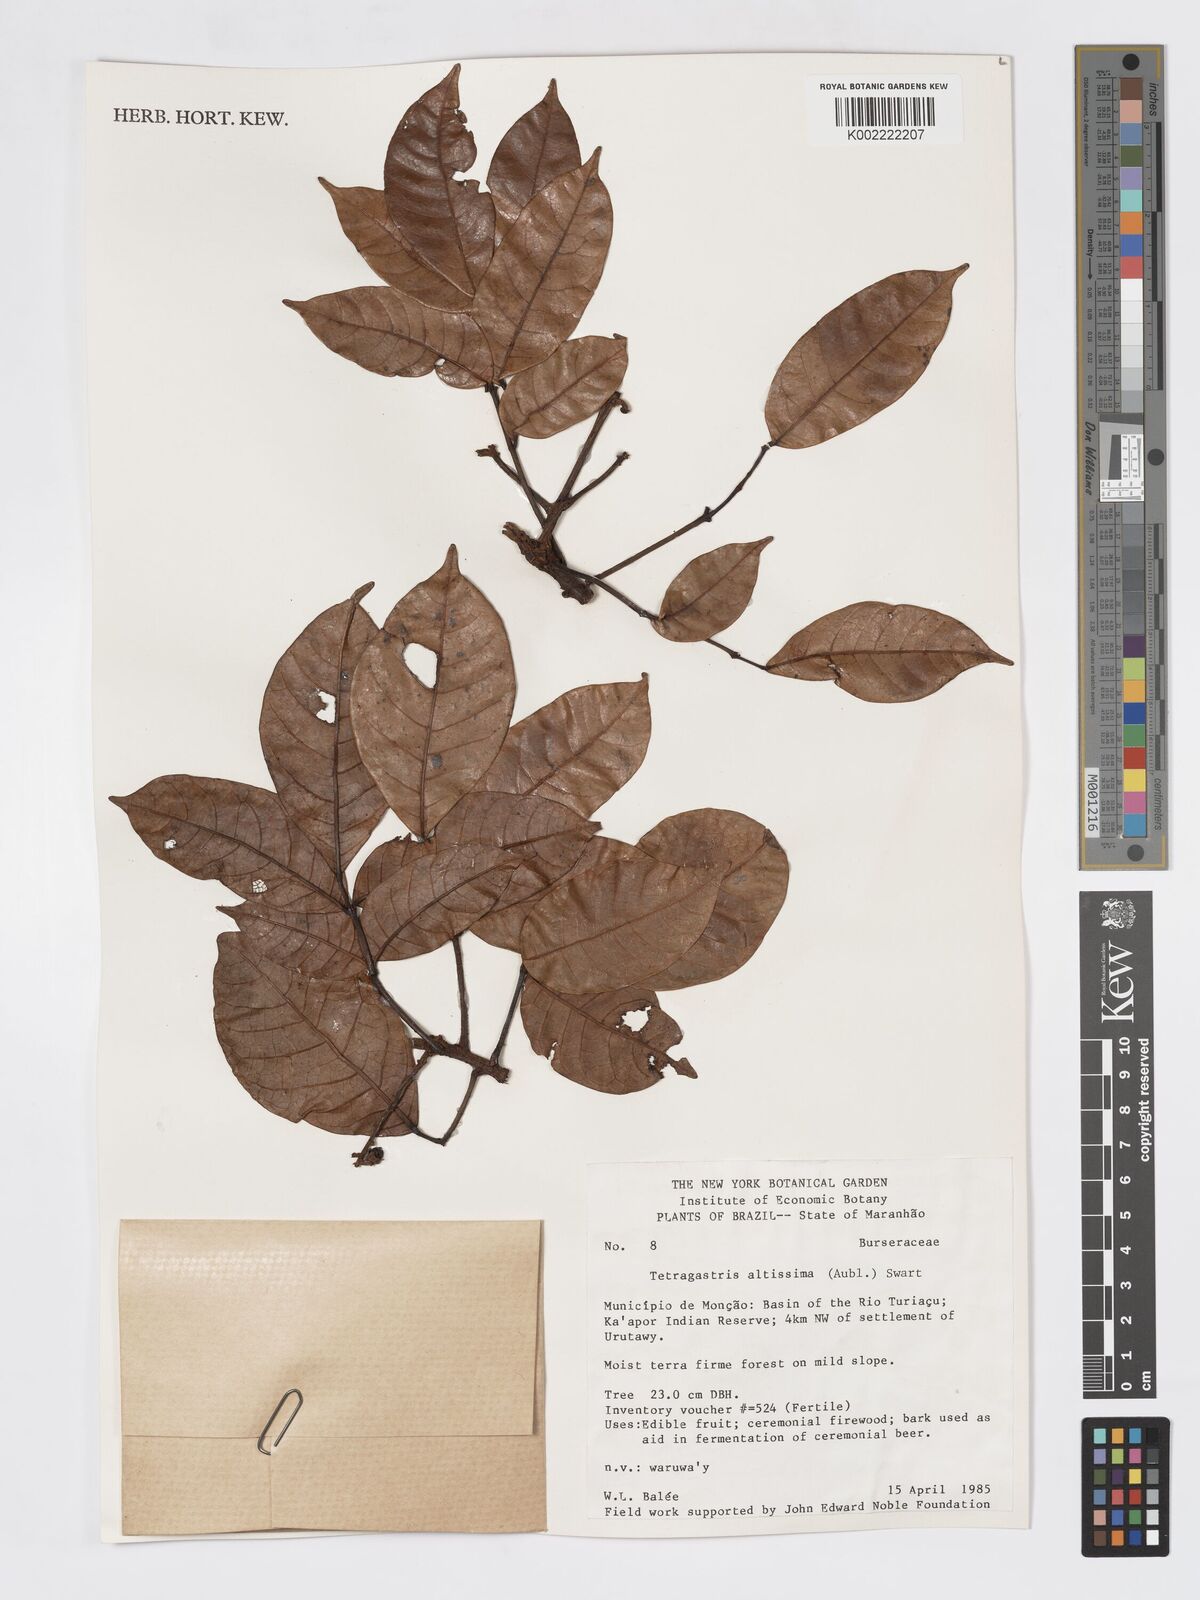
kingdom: Plantae
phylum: Tracheophyta
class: Magnoliopsida
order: Sapindales
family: Burseraceae
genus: Tetragastris
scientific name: Tetragastris altissima
